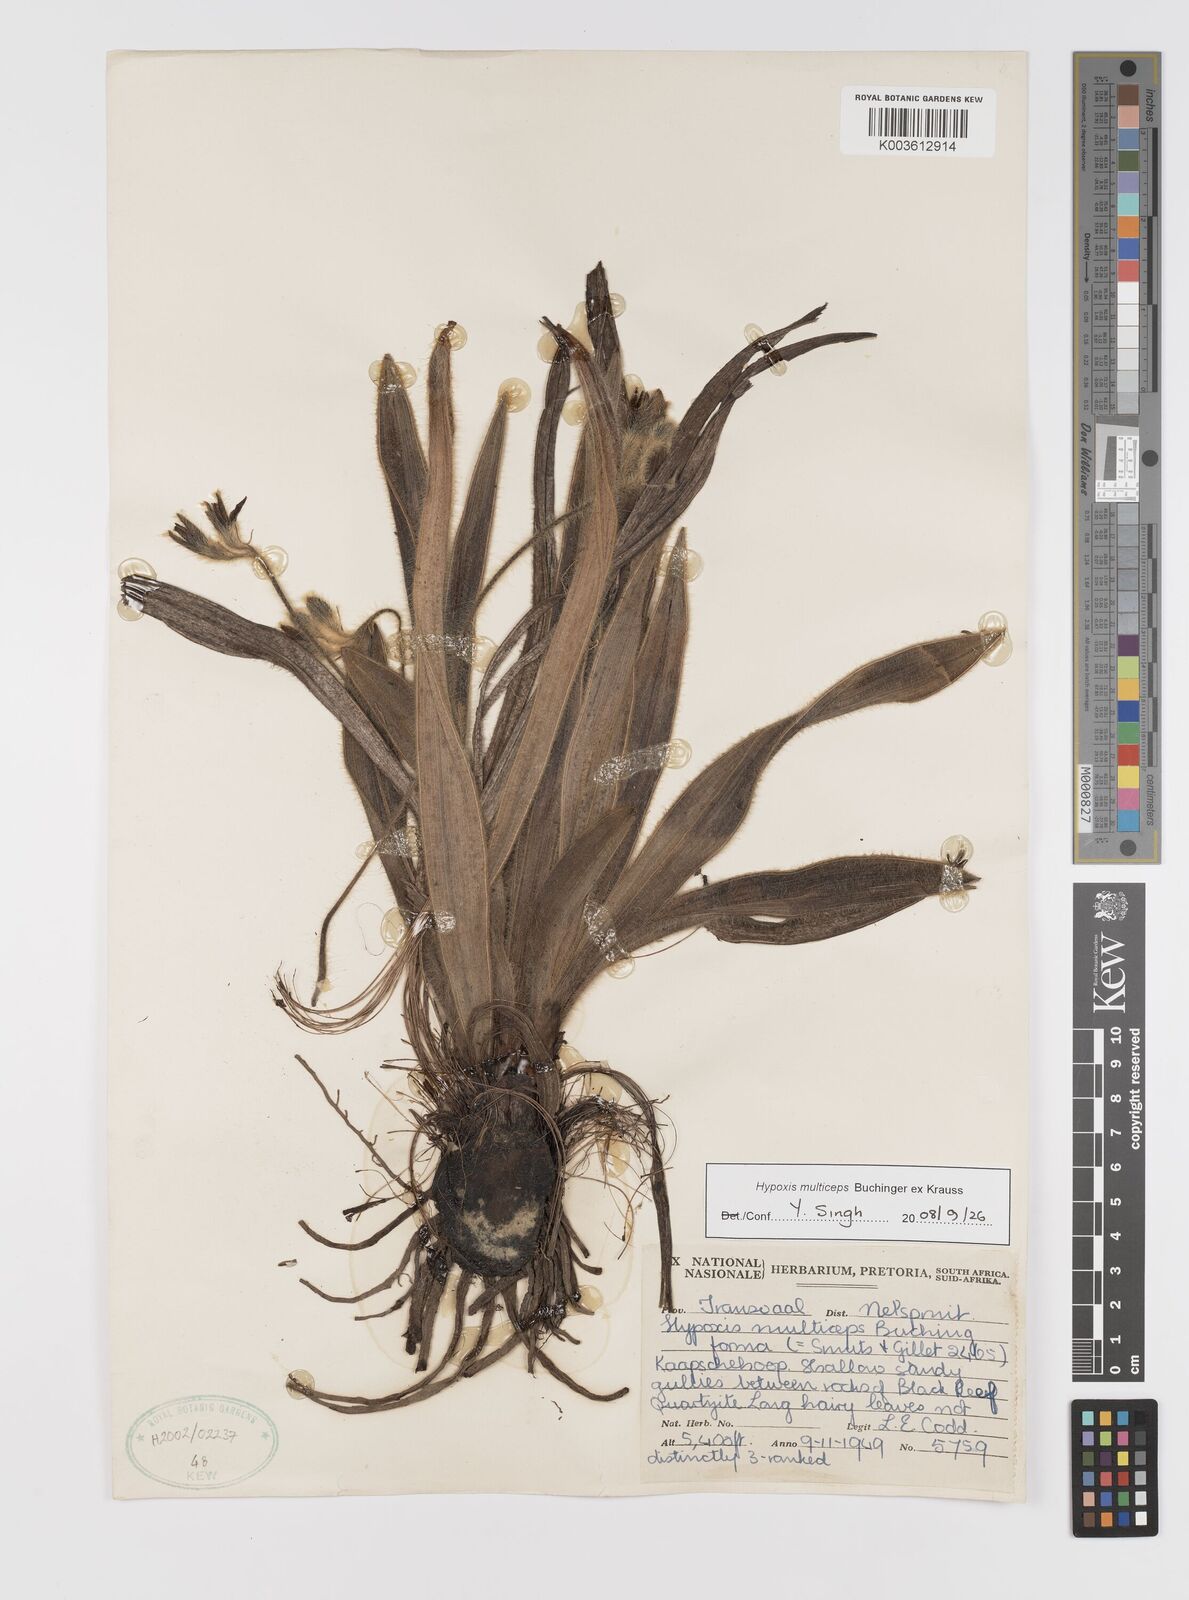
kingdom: Plantae
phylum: Tracheophyta
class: Liliopsida
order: Asparagales
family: Hypoxidaceae
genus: Hypoxis
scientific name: Hypoxis multiceps
